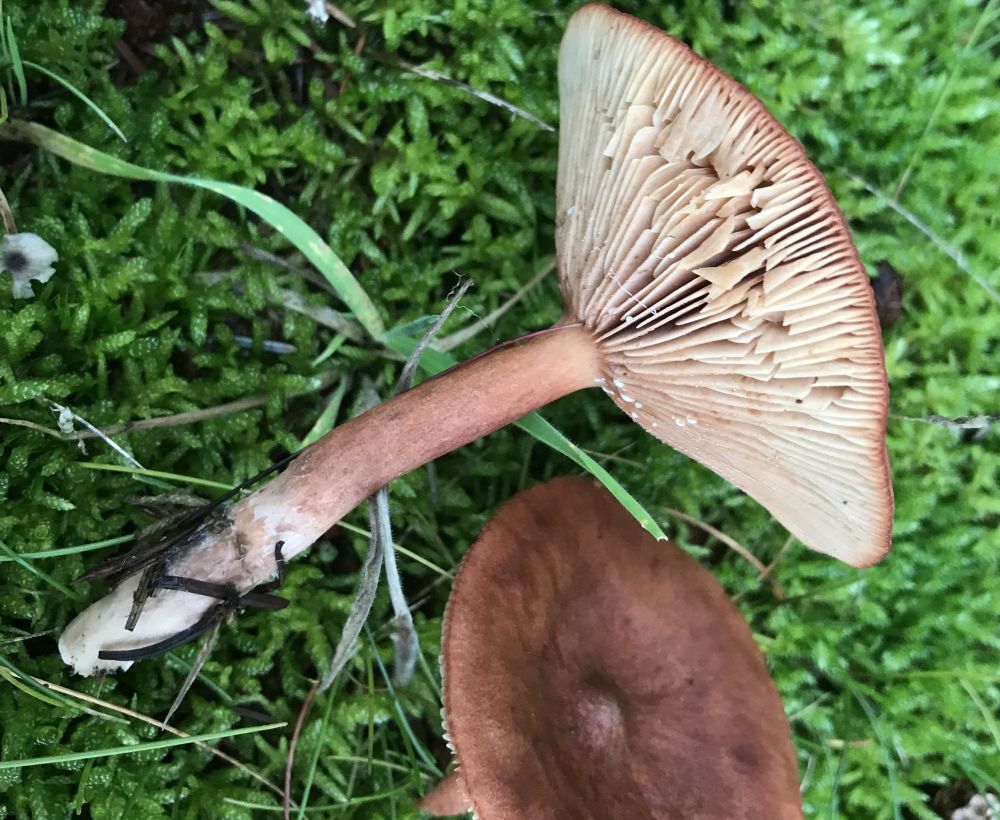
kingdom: Fungi
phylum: Basidiomycota
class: Agaricomycetes
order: Russulales
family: Russulaceae
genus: Lactarius
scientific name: Lactarius rufus
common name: rødbrun mælkehat
